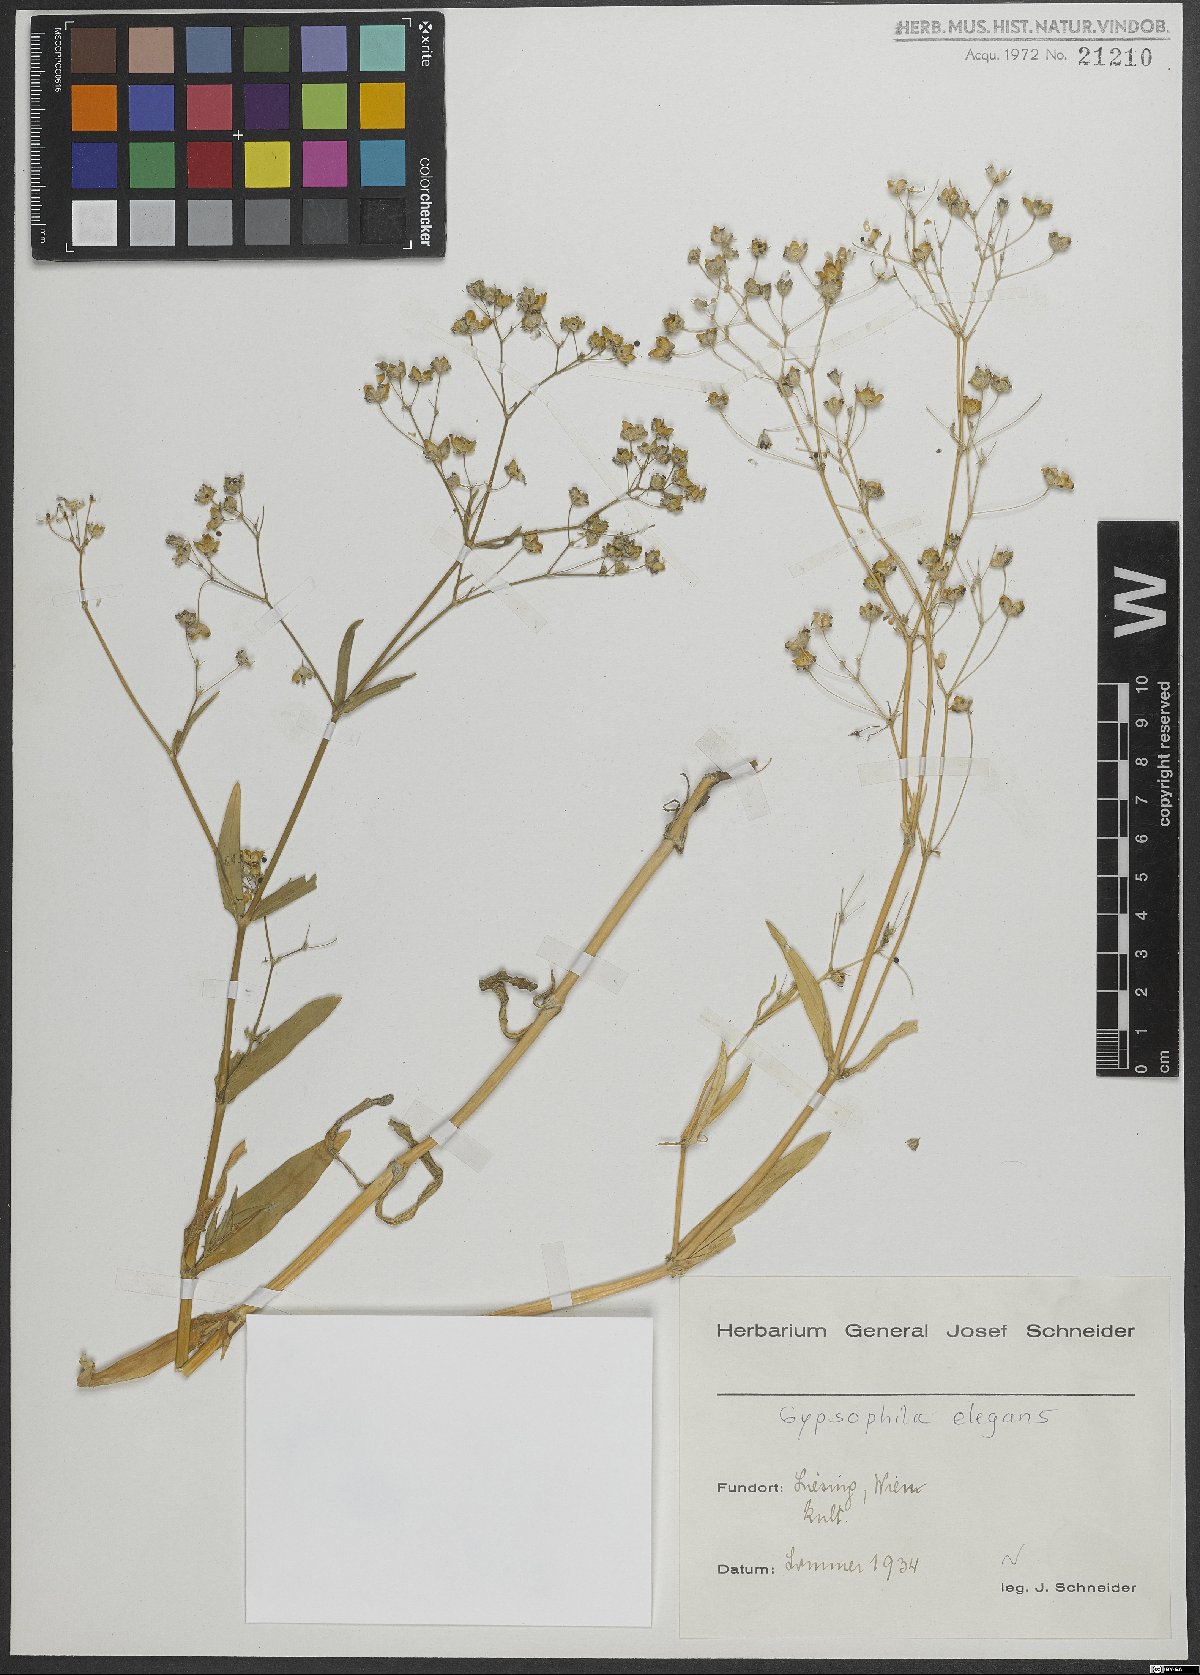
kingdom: Plantae
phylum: Tracheophyta
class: Magnoliopsida
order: Caryophyllales
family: Caryophyllaceae
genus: Gypsophila
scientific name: Gypsophila elegans
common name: Showy baby's-breath
